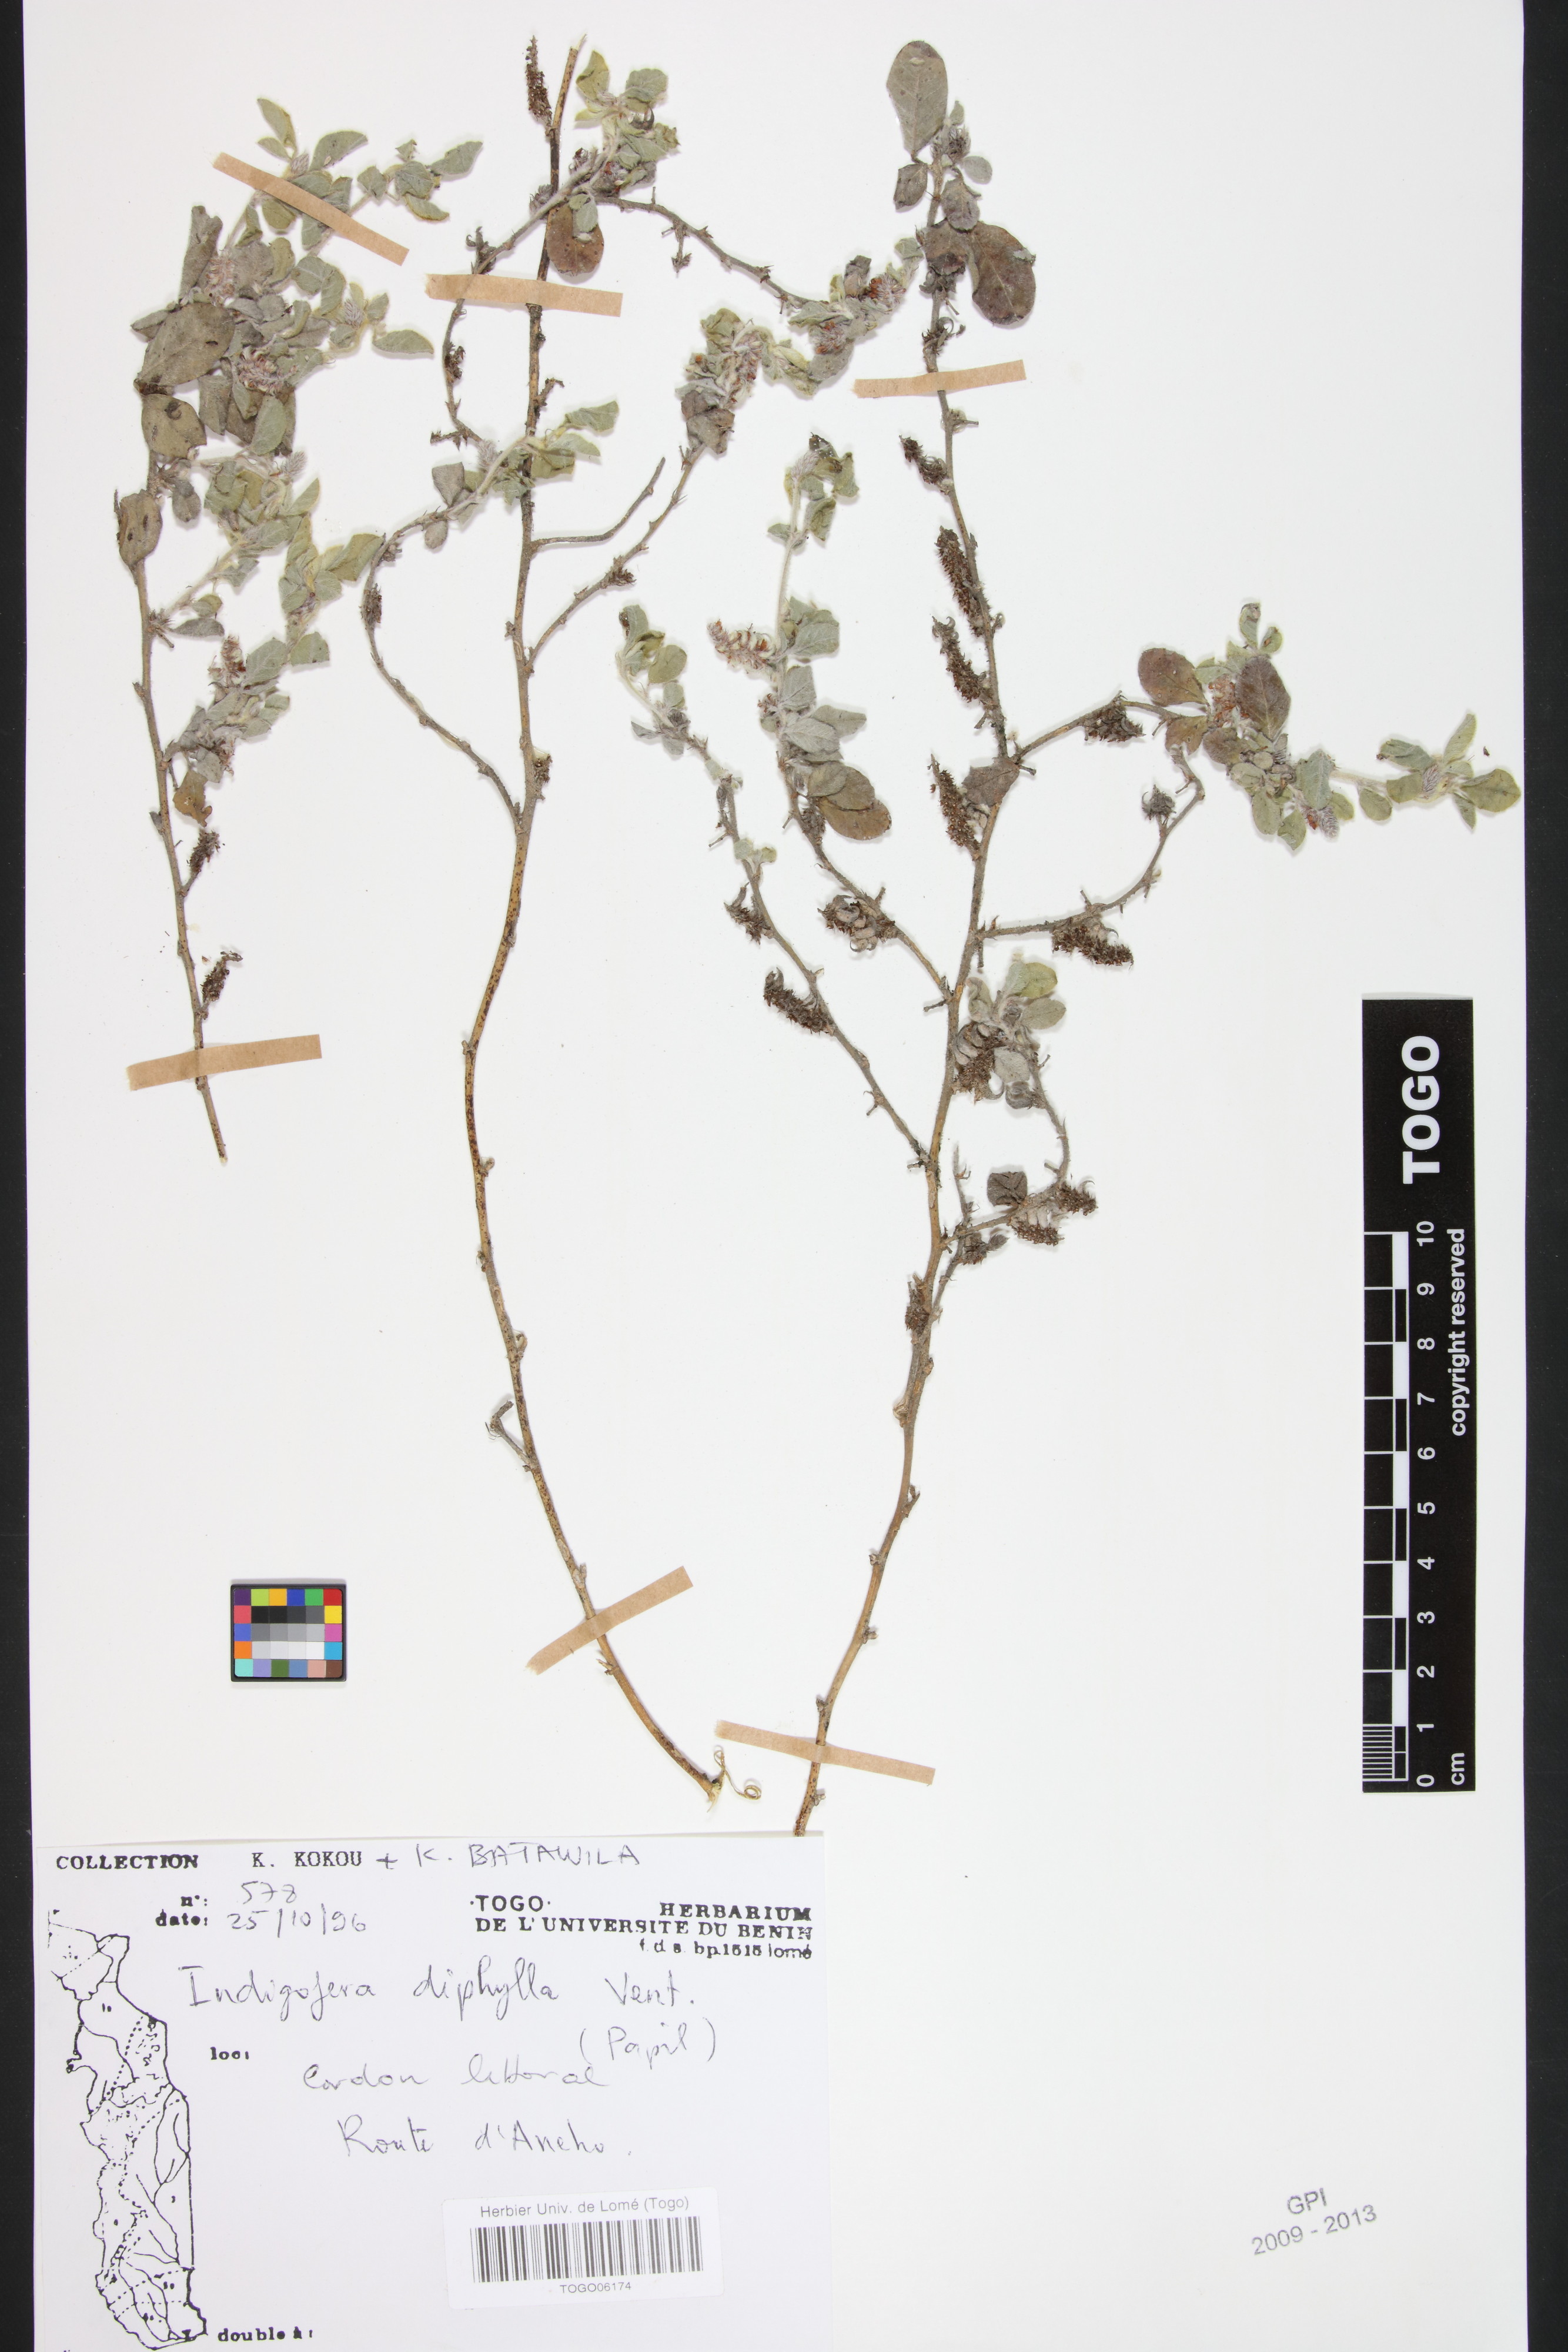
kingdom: Plantae
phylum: Tracheophyta
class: Magnoliopsida
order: Fabales
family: Fabaceae
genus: Indigofera
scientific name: Indigofera diphylla
